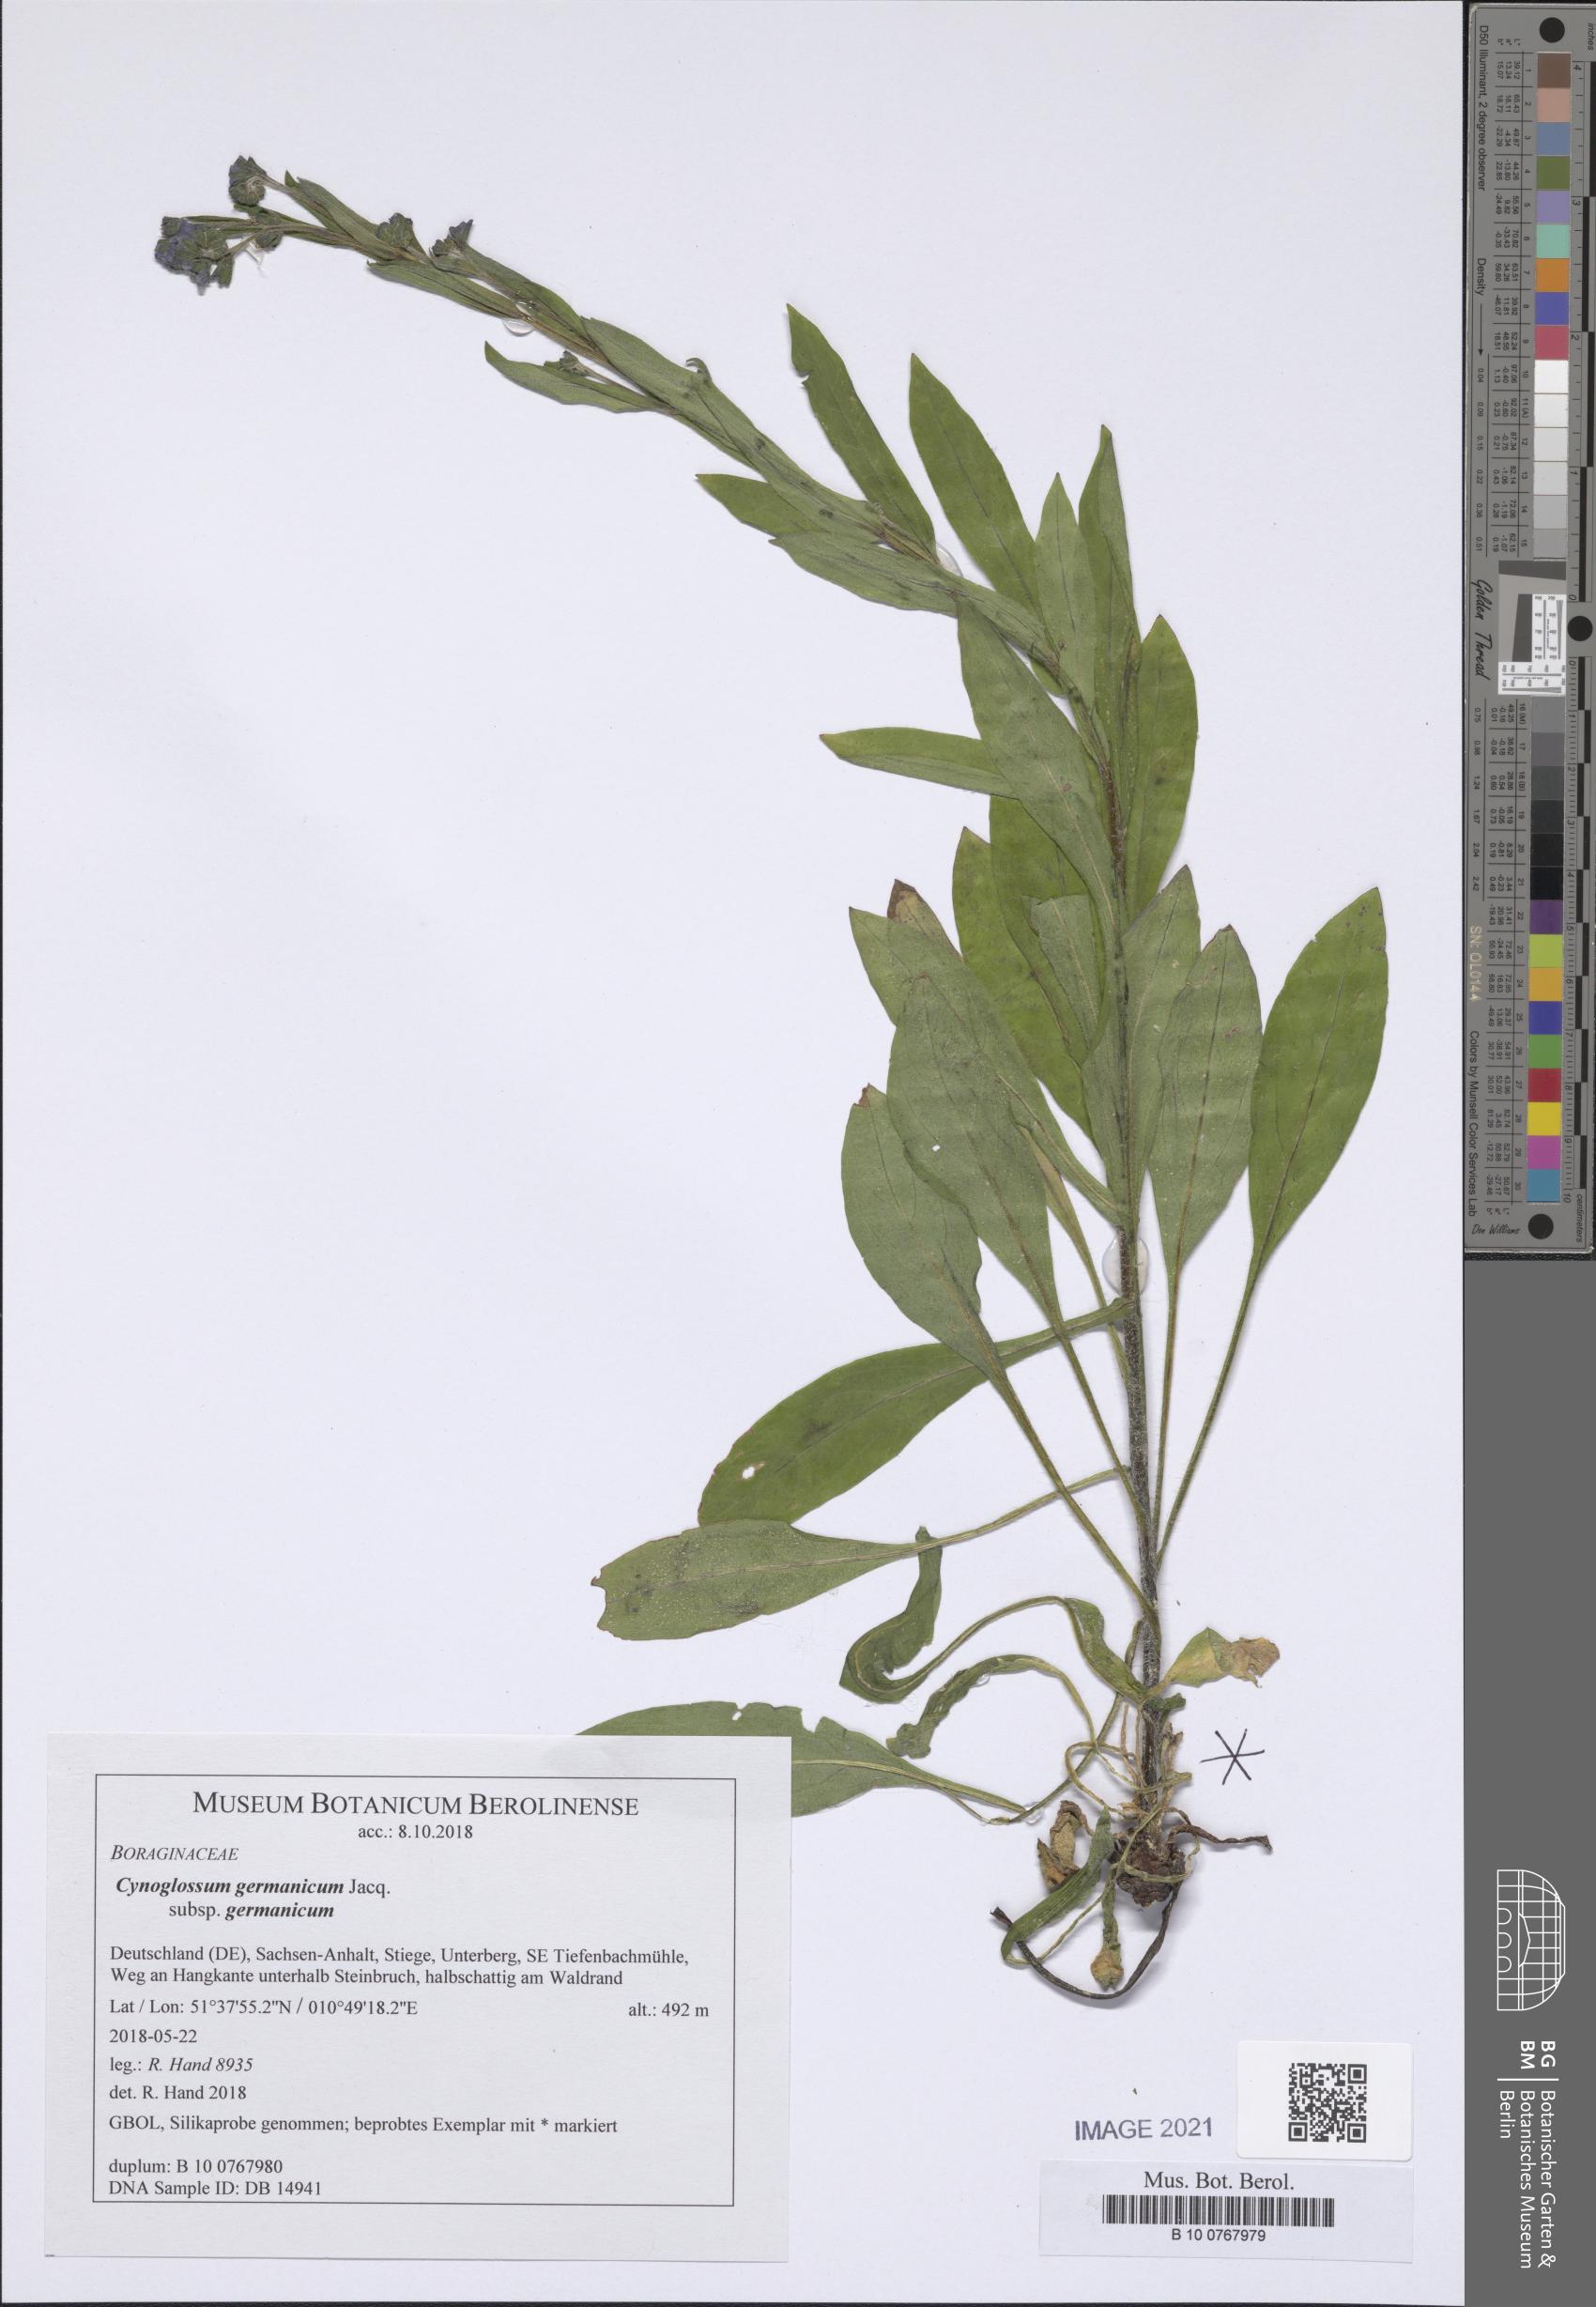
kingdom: Plantae
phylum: Tracheophyta
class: Magnoliopsida
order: Boraginales
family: Boraginaceae
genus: Cynoglossum
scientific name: Cynoglossum germanicum
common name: Green hound's-tongue
